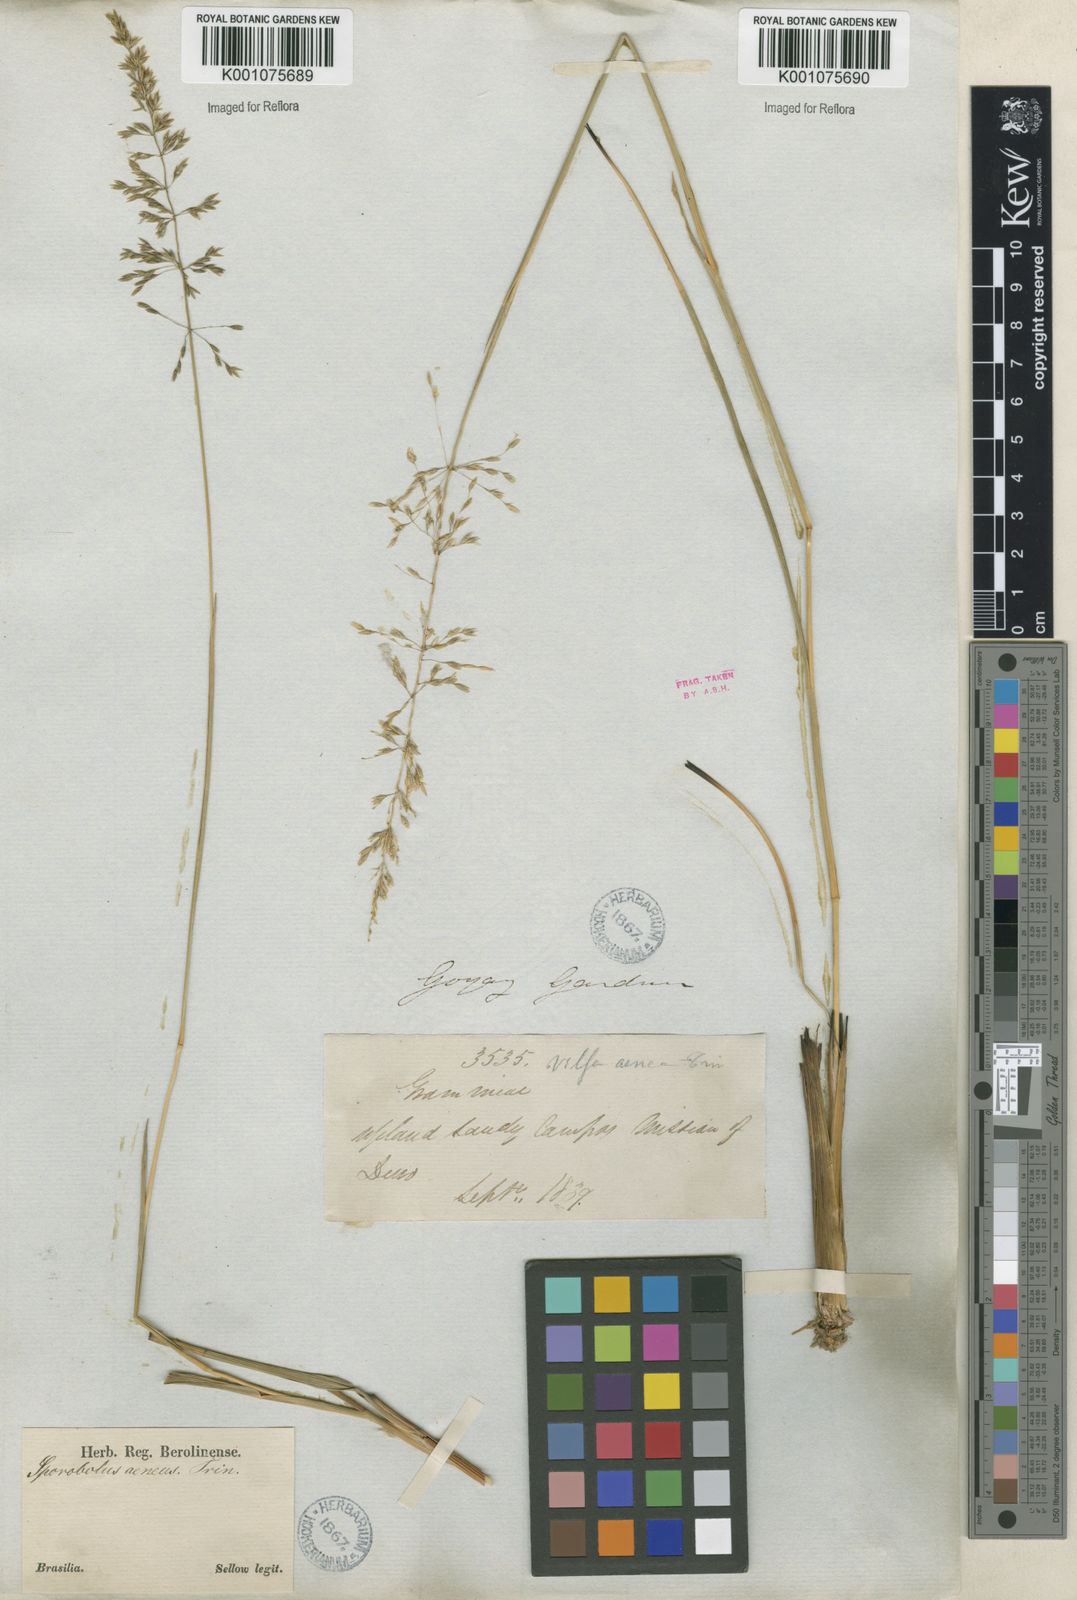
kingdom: Plantae
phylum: Tracheophyta
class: Liliopsida
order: Poales
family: Poaceae
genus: Sporobolus
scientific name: Sporobolus cubensis
